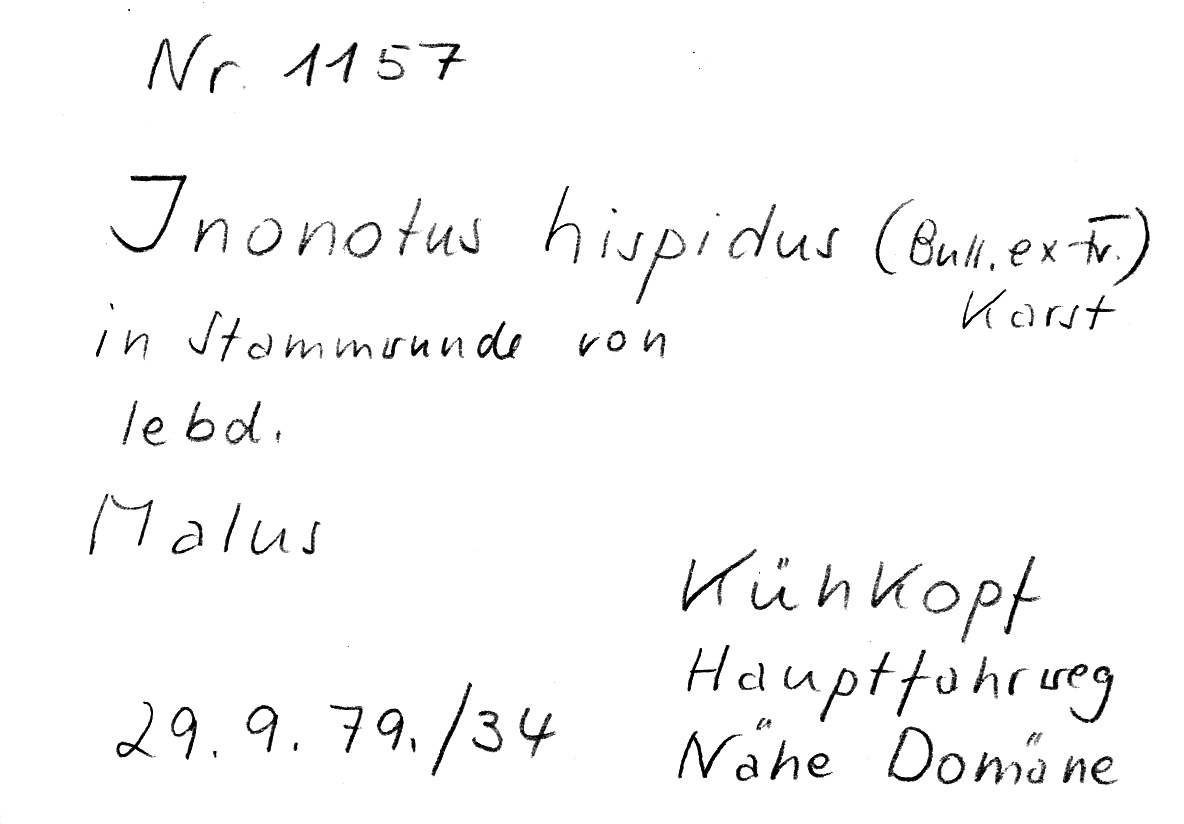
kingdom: Fungi
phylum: Basidiomycota
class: Agaricomycetes
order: Hymenochaetales
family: Hymenochaetaceae
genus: Inonotus
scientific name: Inonotus hispidus
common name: Shaggy bracket
